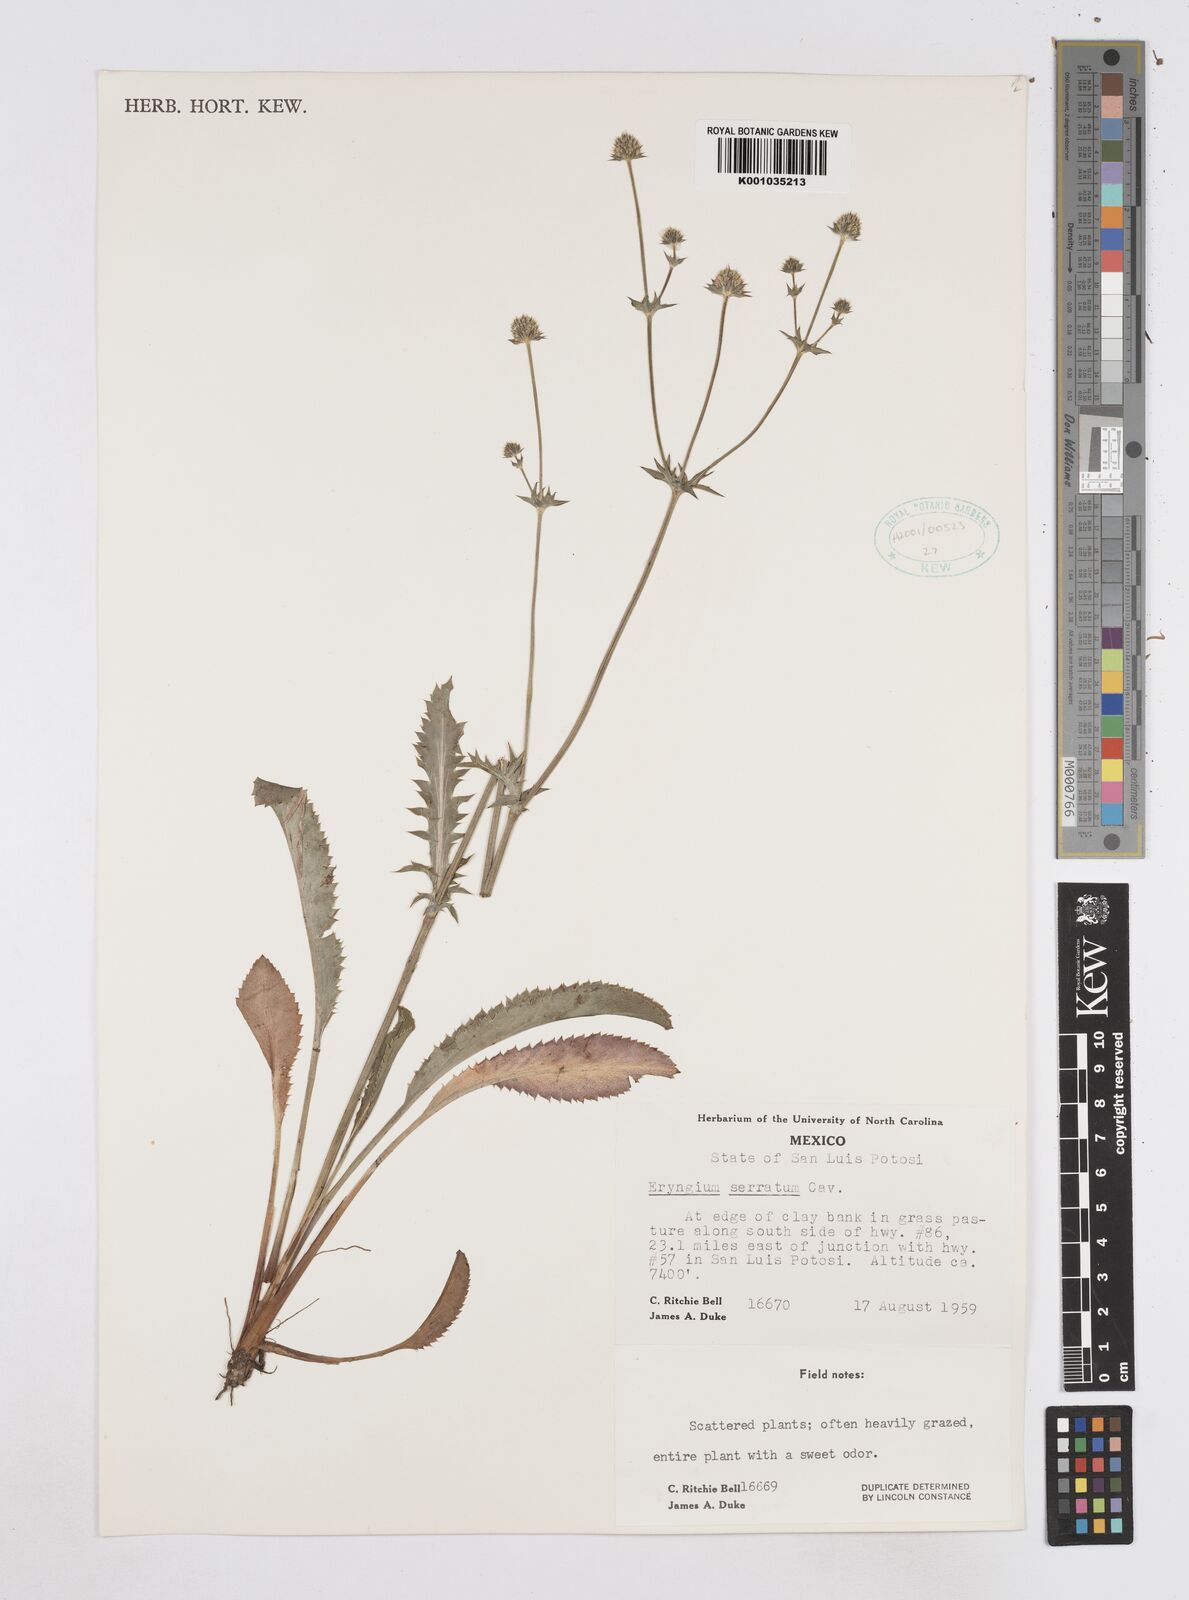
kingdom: Plantae
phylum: Tracheophyta
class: Magnoliopsida
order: Apiales
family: Apiaceae
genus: Eryngium
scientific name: Eryngium serratum
